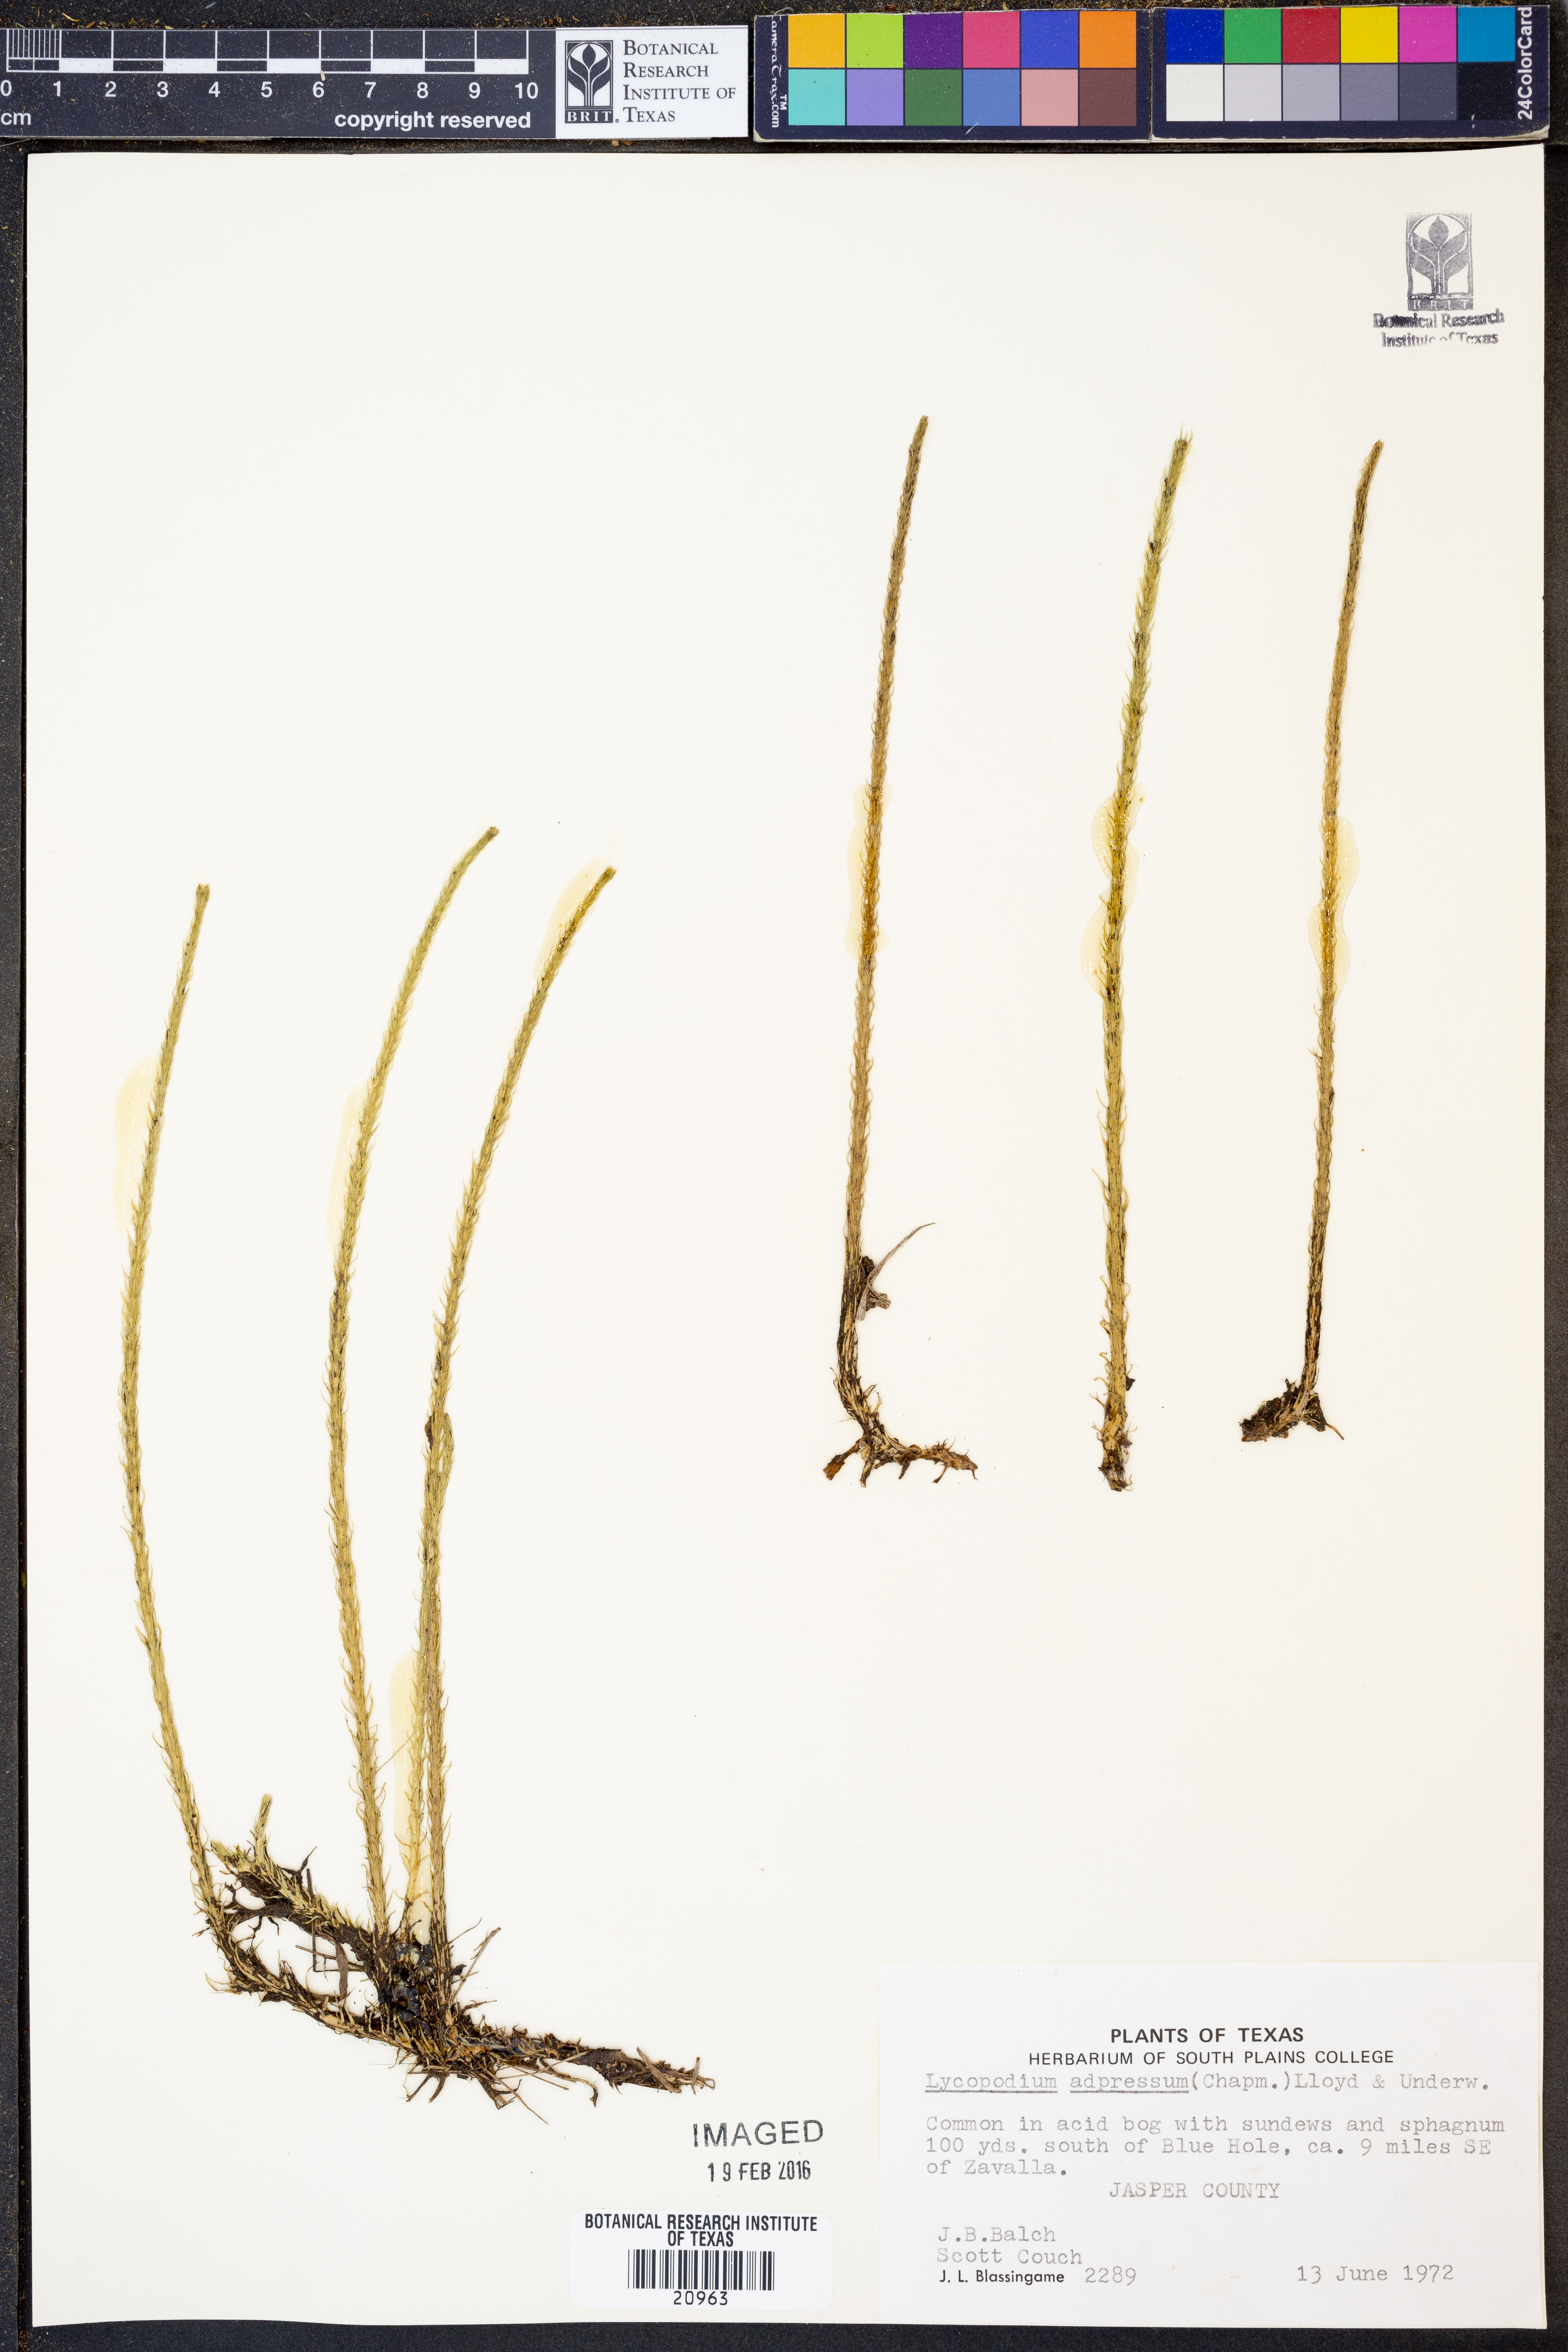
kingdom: Plantae
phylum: Tracheophyta
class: Lycopodiopsida
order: Lycopodiales
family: Lycopodiaceae
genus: Lycopodiella
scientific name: Lycopodiella appressa
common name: Appressed bog clubmoss
